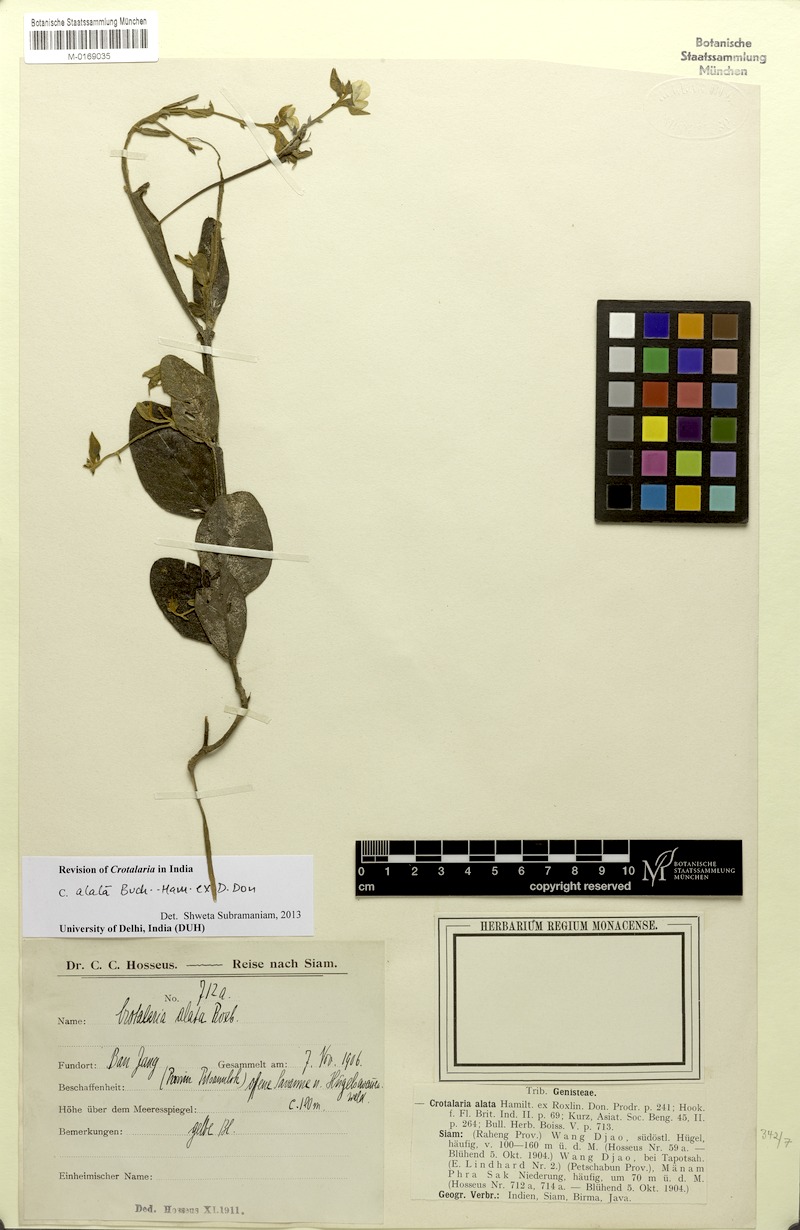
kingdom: Plantae
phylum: Tracheophyta
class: Magnoliopsida
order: Fabales
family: Fabaceae
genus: Crotalaria
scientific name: Crotalaria alata
